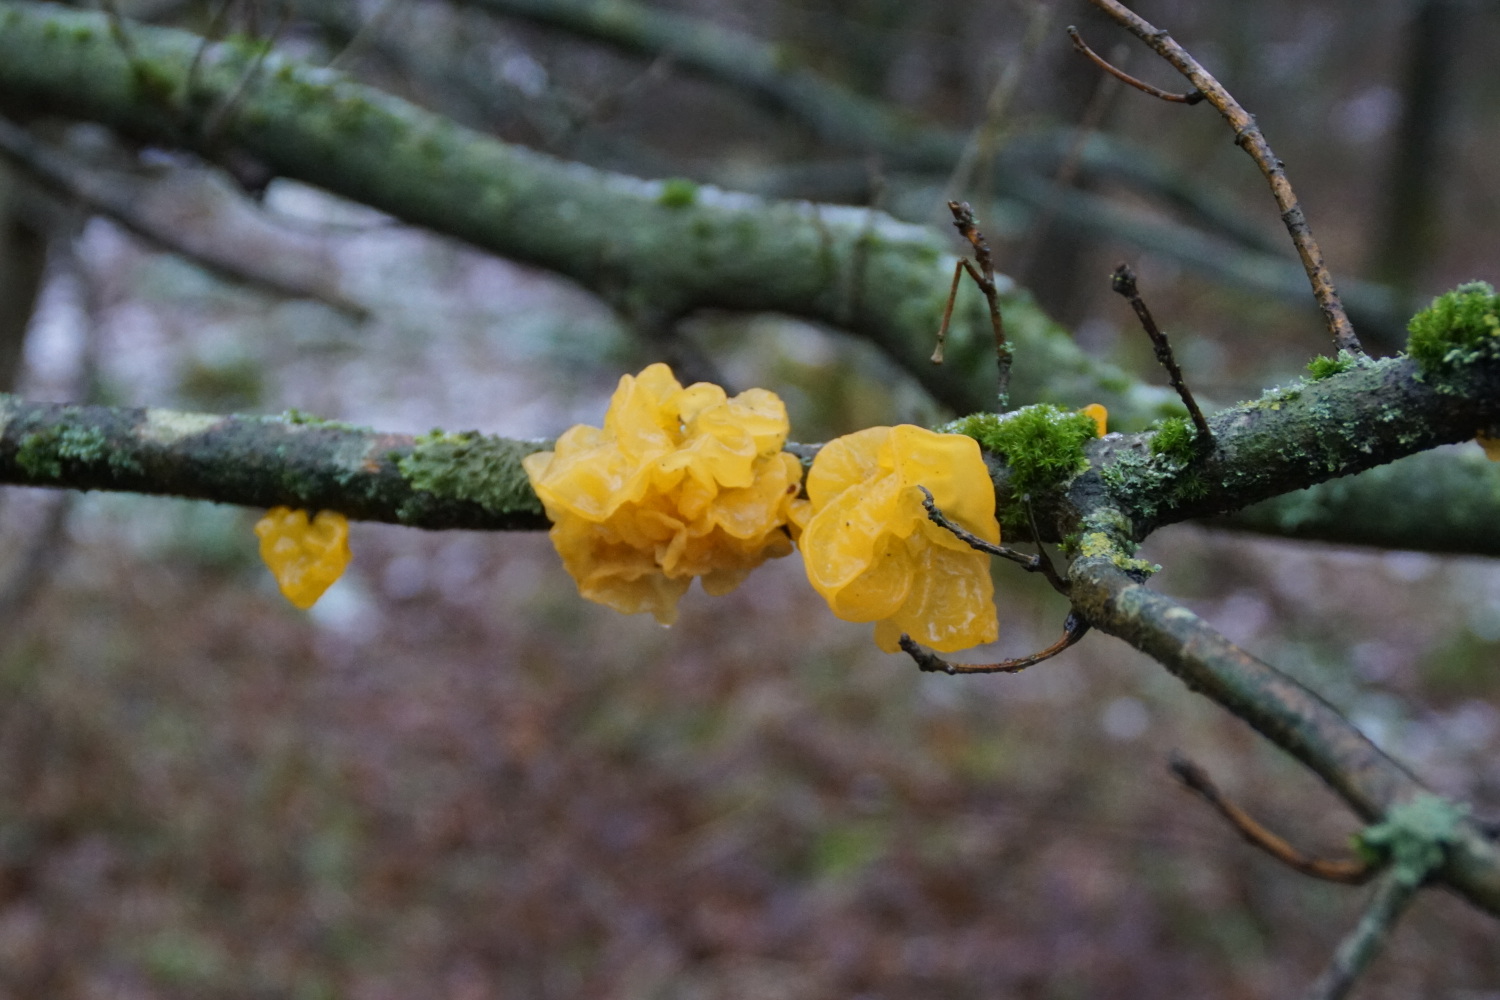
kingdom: Fungi
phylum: Basidiomycota
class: Tremellomycetes
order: Tremellales
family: Tremellaceae
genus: Tremella
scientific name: Tremella mesenterica
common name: gul bævresvamp
